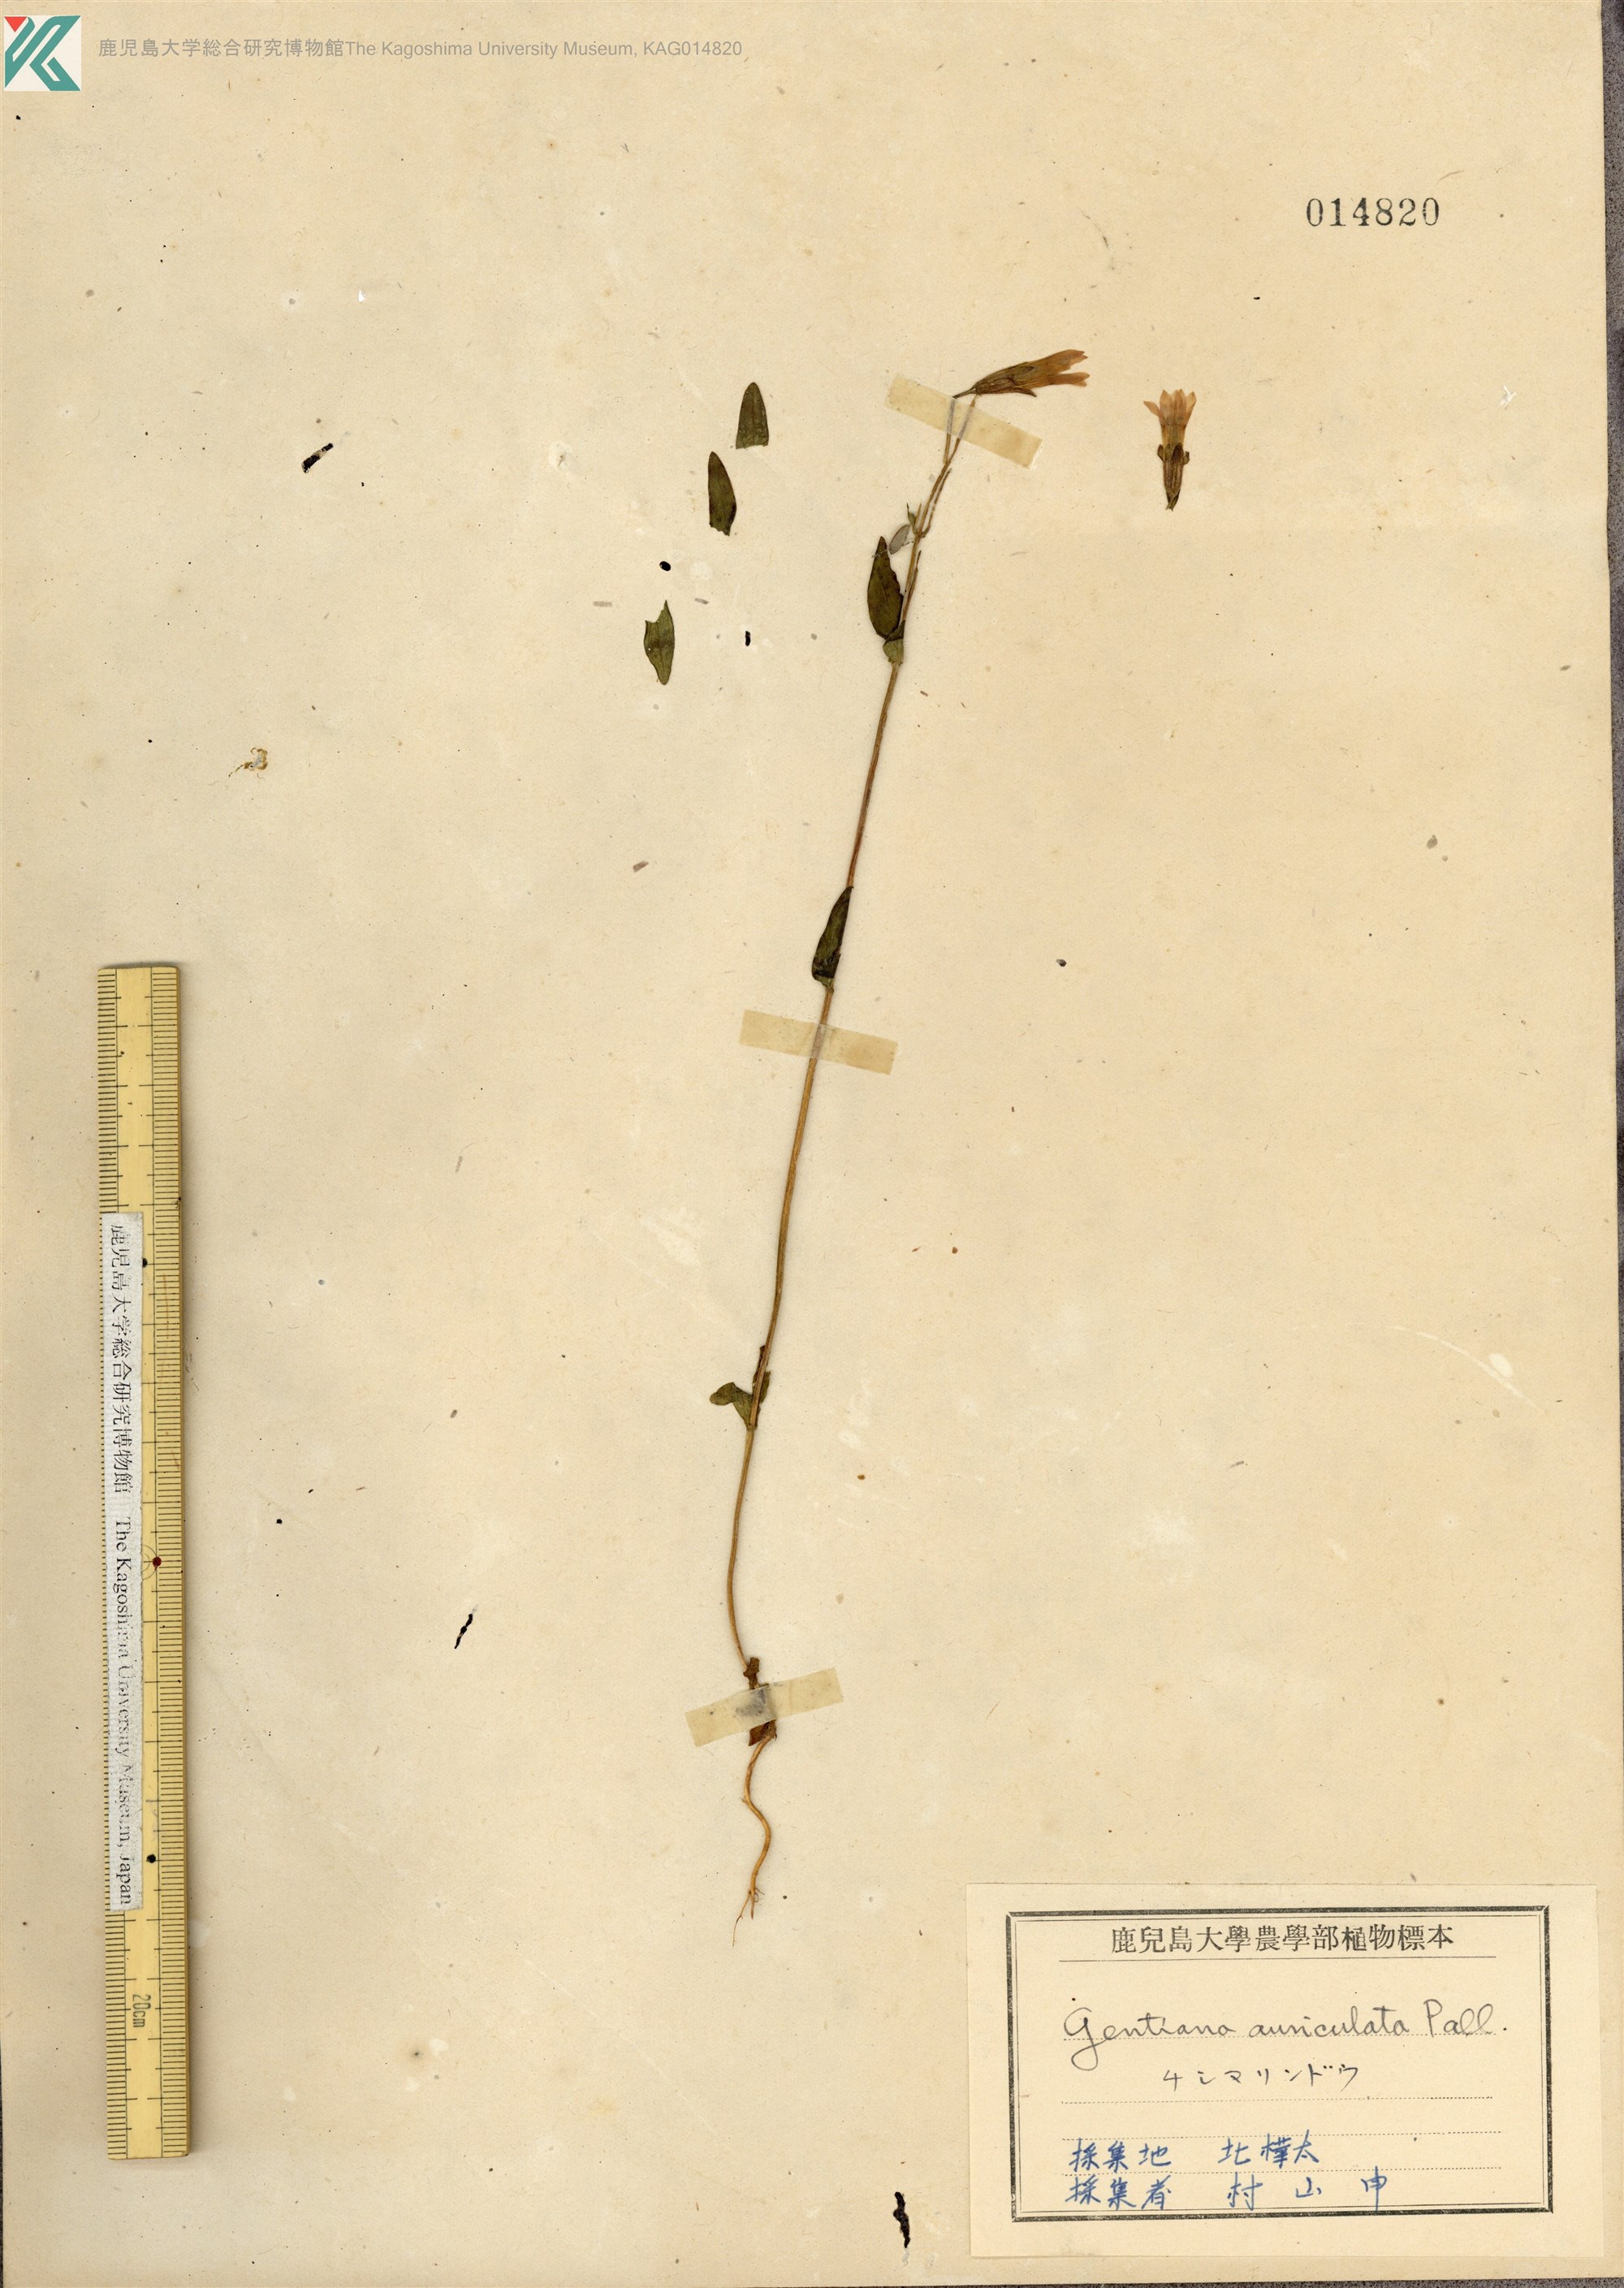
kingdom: Plantae
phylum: Tracheophyta
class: Magnoliopsida
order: Gentianales
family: Gentianaceae
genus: Gentianella
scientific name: Gentianella auriculata
